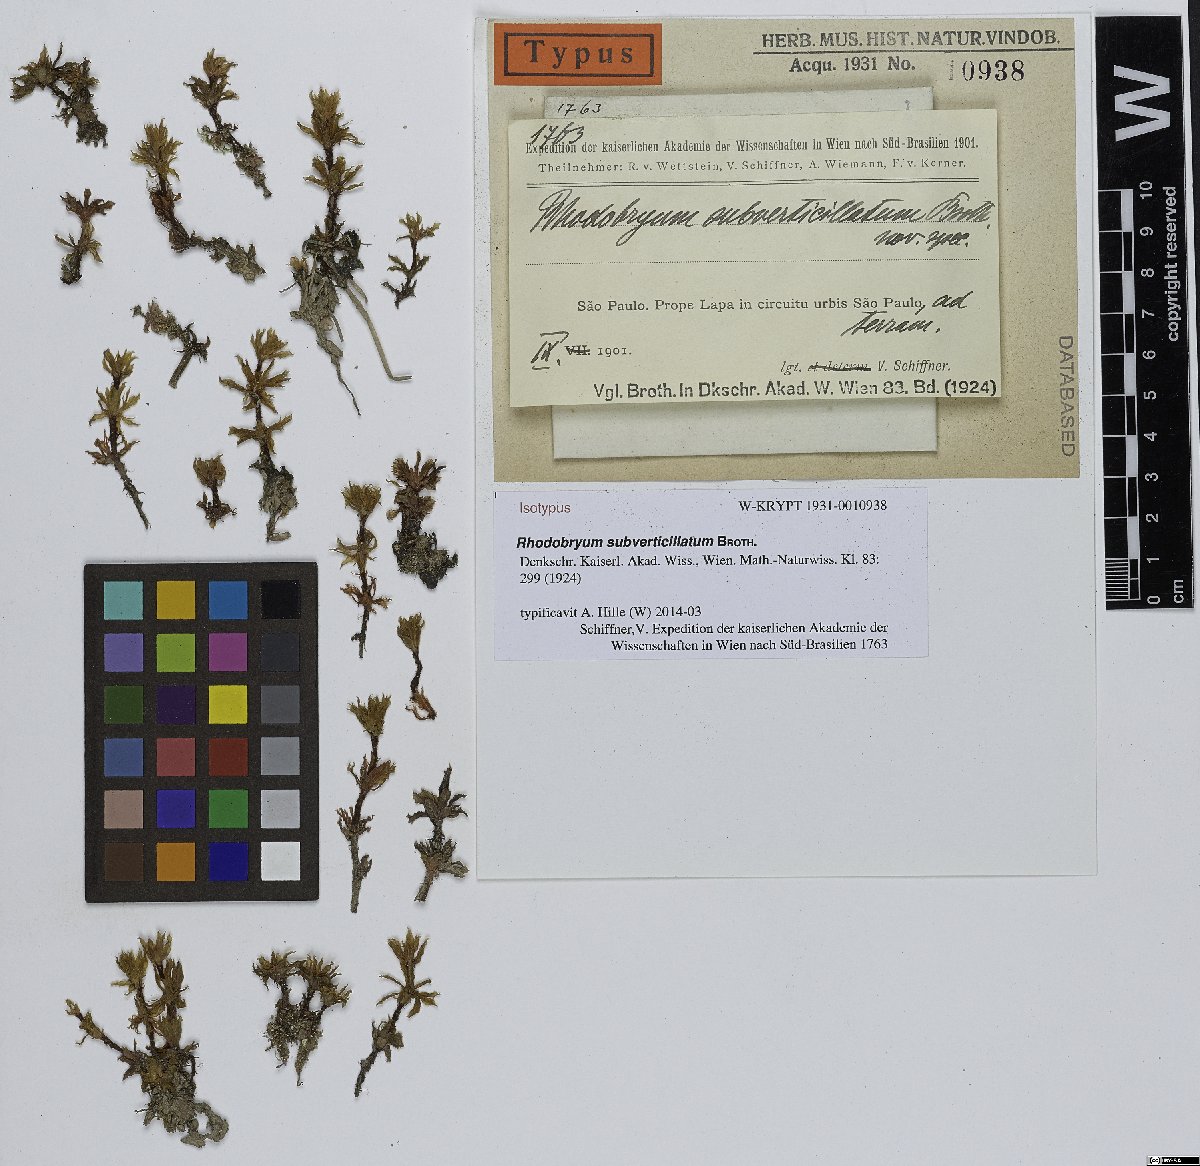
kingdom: Plantae
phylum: Bryophyta
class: Bryopsida
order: Bryales
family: Bryaceae
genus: Rhodobryum
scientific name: Rhodobryum subverticillatum
